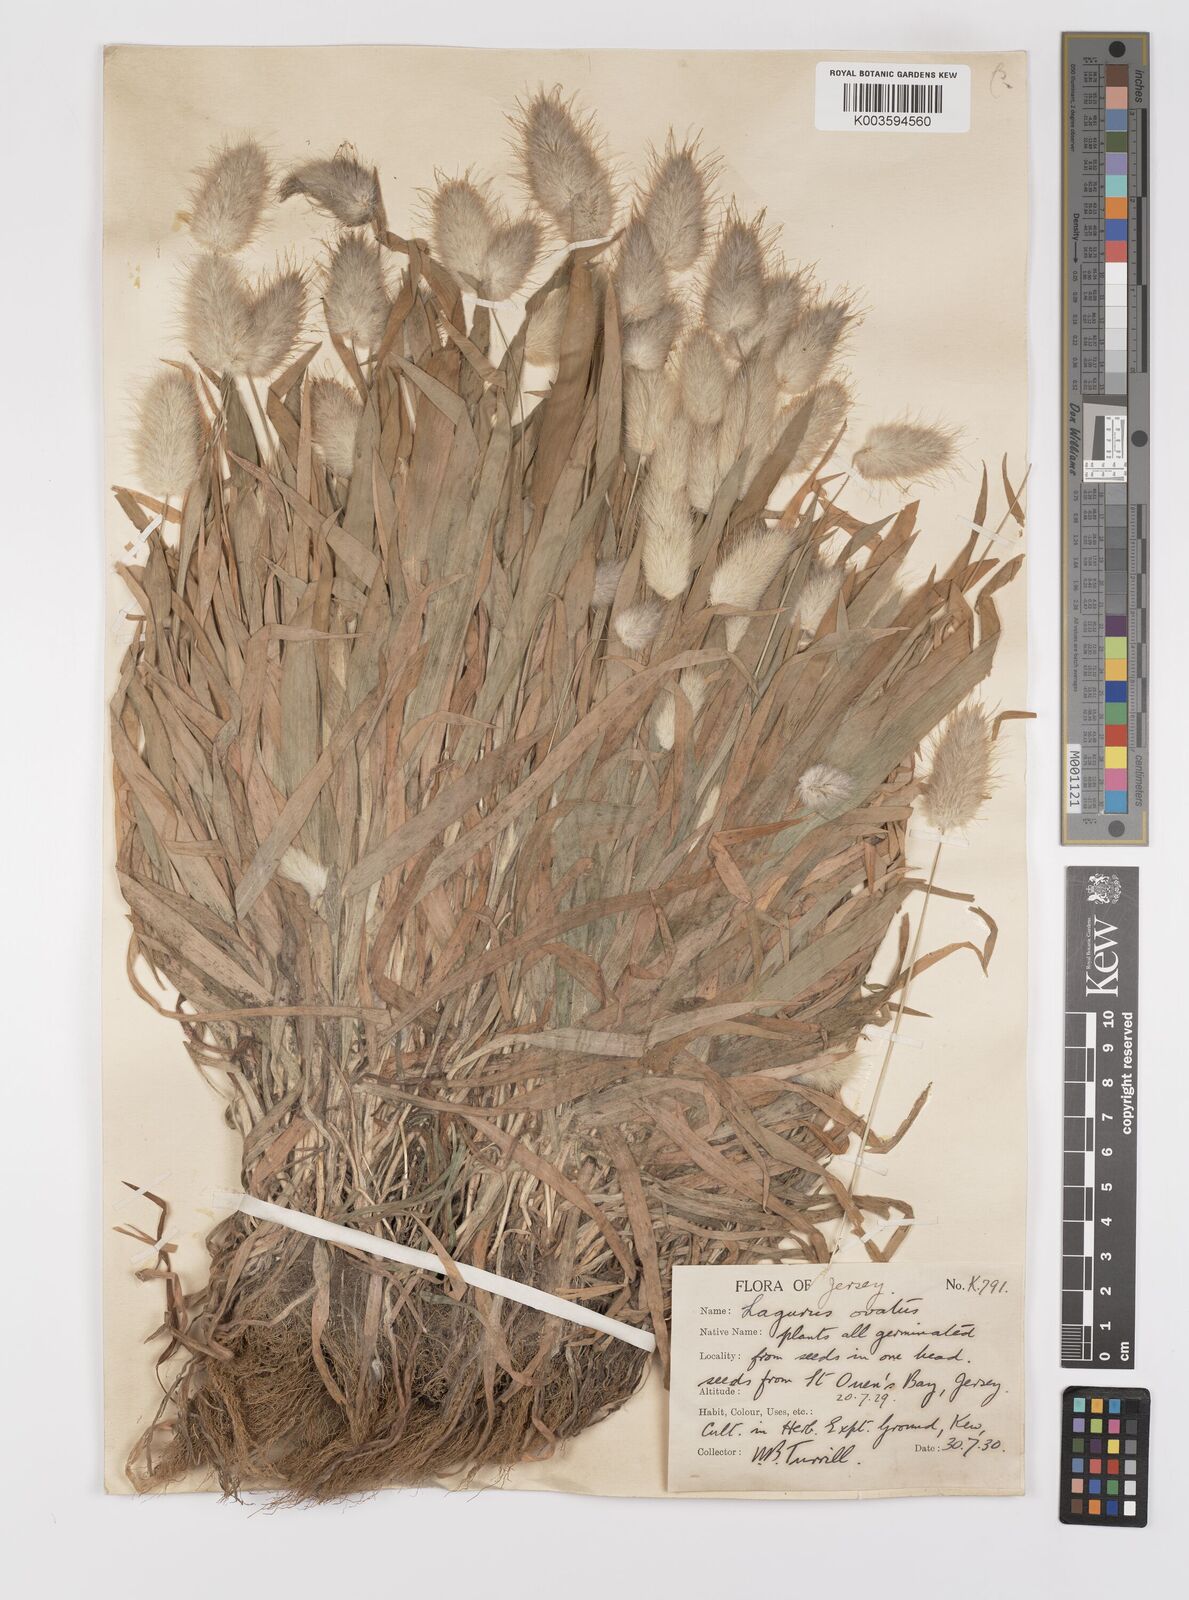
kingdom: Plantae
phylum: Tracheophyta
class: Liliopsida
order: Poales
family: Poaceae
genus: Lagurus
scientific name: Lagurus ovatus
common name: Hare's-tail
